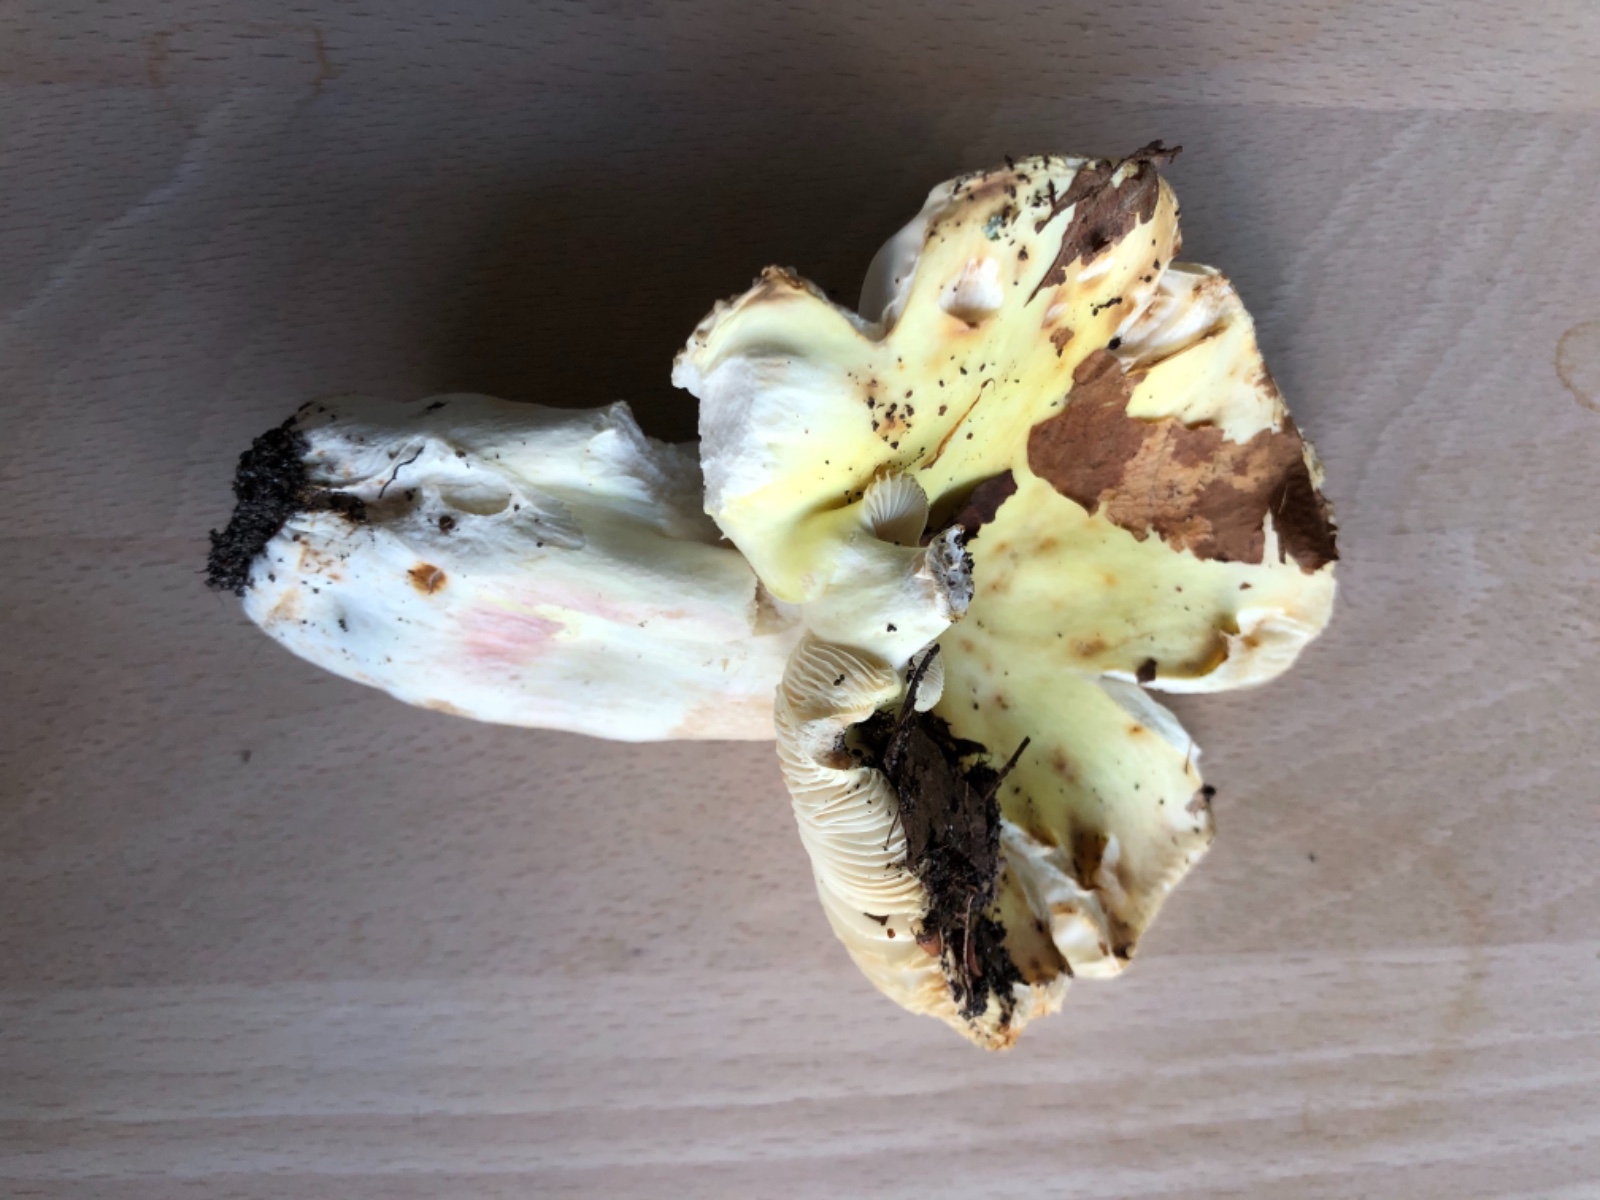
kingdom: Fungi
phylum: Basidiomycota
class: Agaricomycetes
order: Russulales
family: Russulaceae
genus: Russula
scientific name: Russula violeipes
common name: ferskengul skørhat
